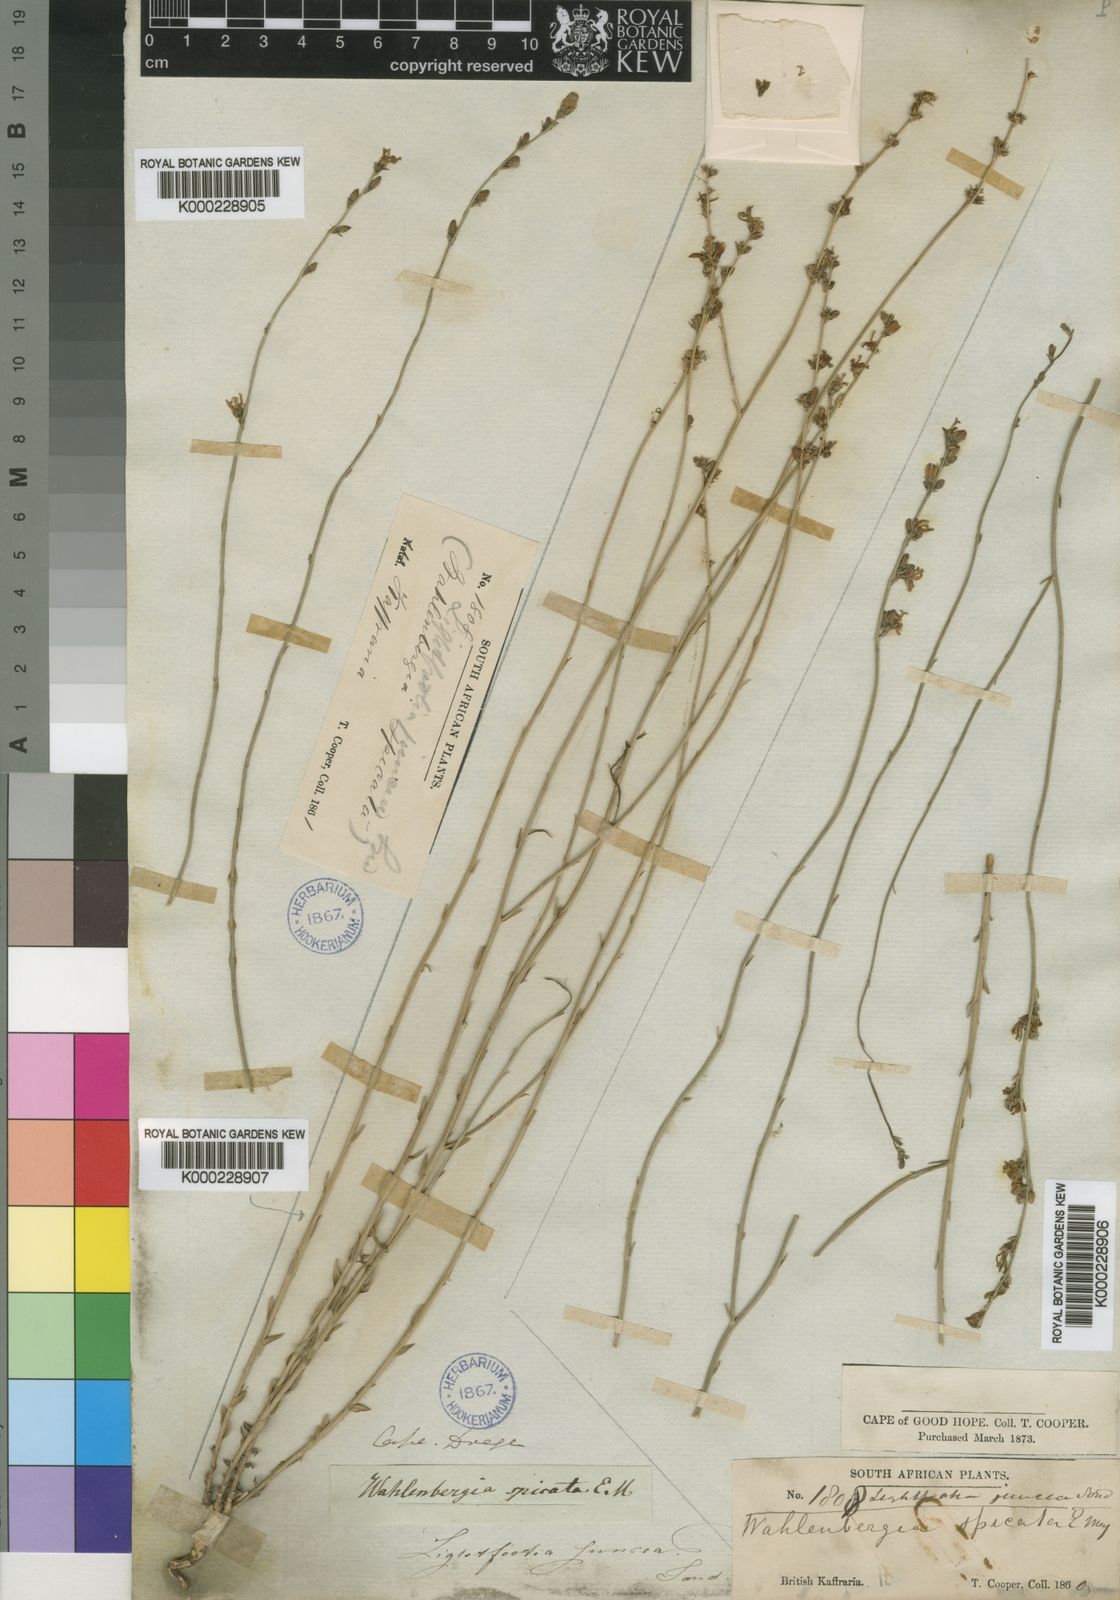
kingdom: Plantae
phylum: Tracheophyta
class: Magnoliopsida
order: Asterales
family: Campanulaceae
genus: Wahlenbergia
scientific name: Wahlenbergia juncea
